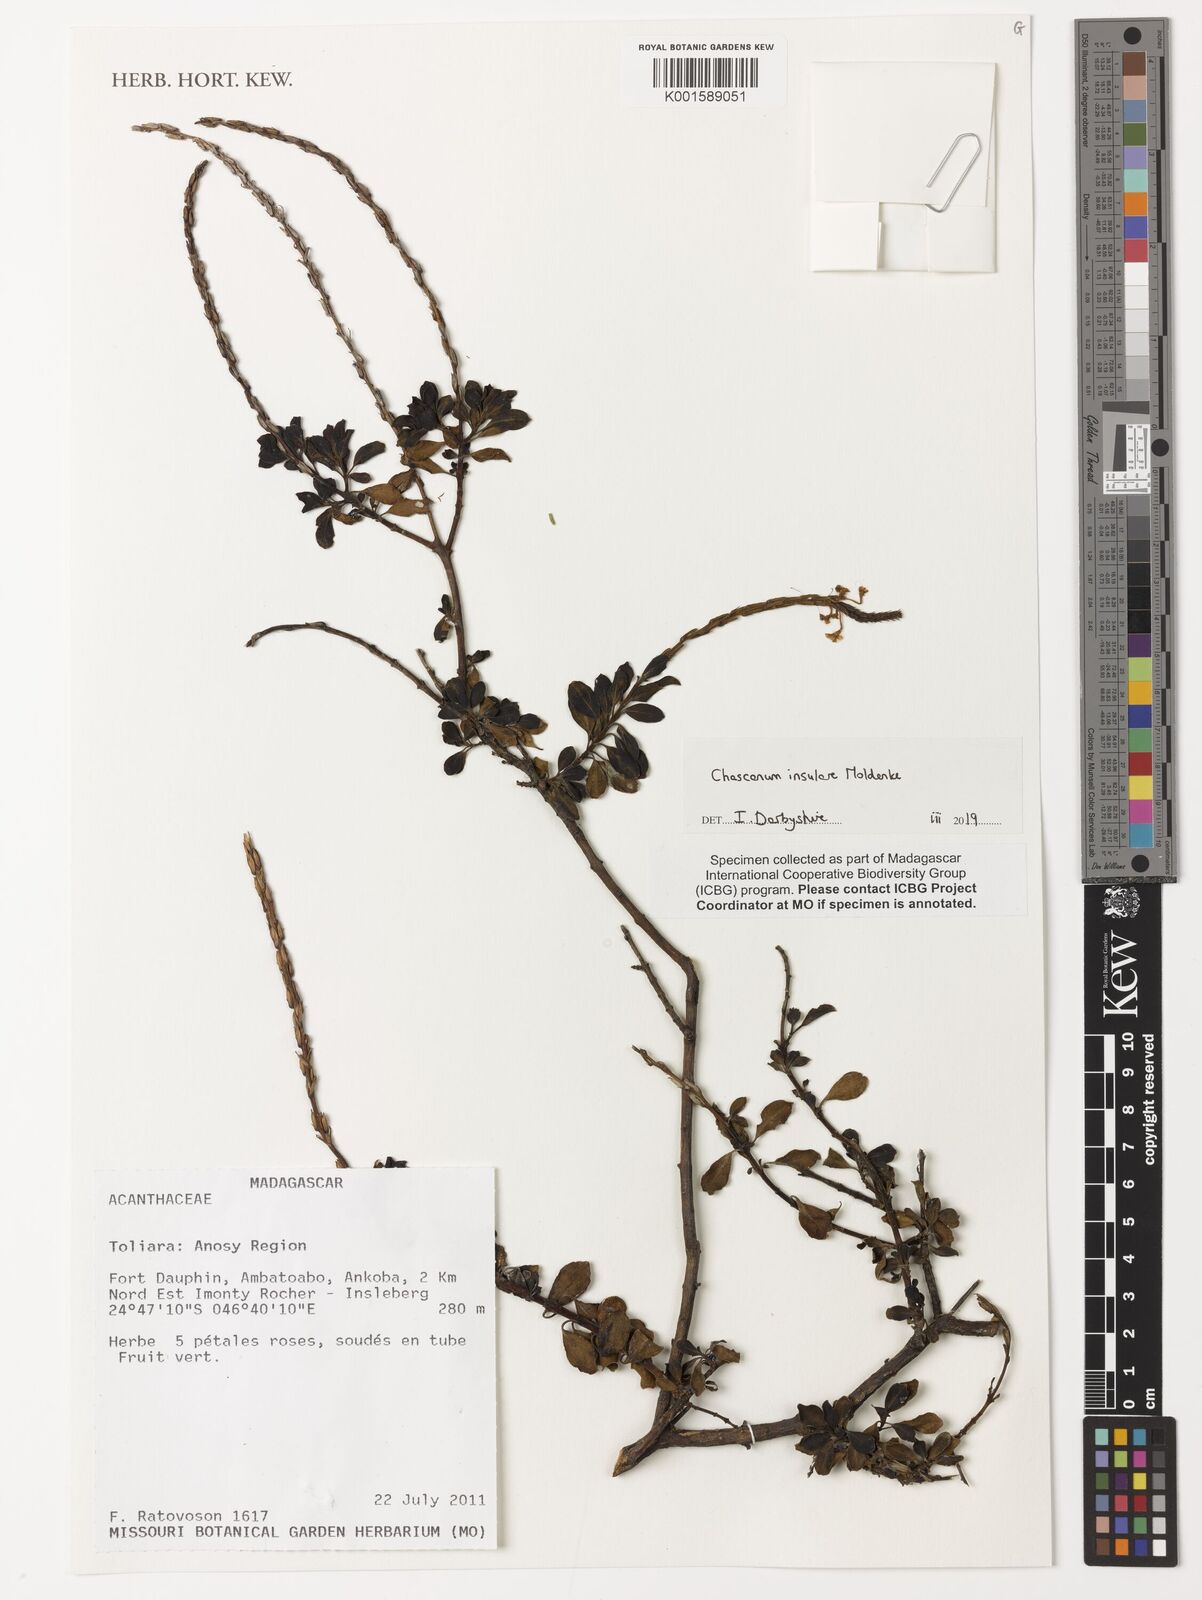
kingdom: Plantae
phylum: Tracheophyta
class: Magnoliopsida
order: Lamiales
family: Verbenaceae
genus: Chascanum
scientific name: Chascanum insulare
